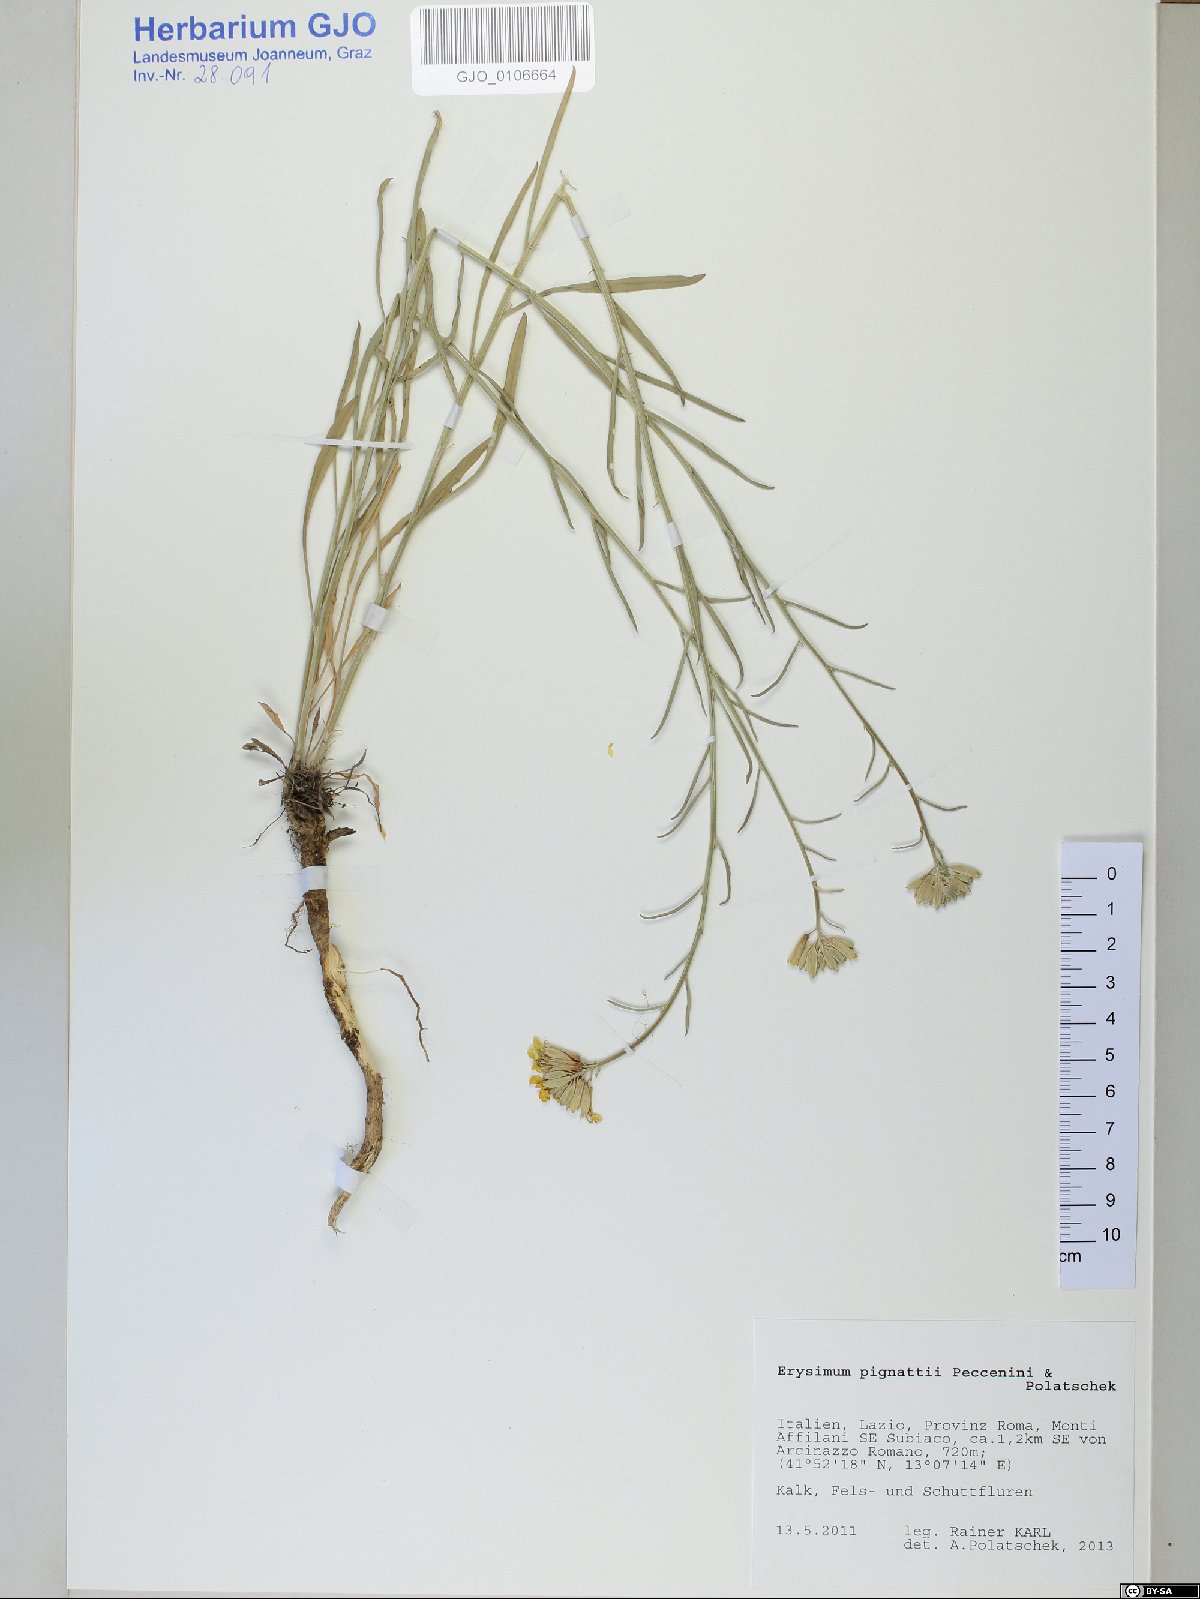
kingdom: Plantae
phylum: Tracheophyta
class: Magnoliopsida
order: Brassicales
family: Brassicaceae
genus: Erysimum
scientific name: Erysimum pignattii
